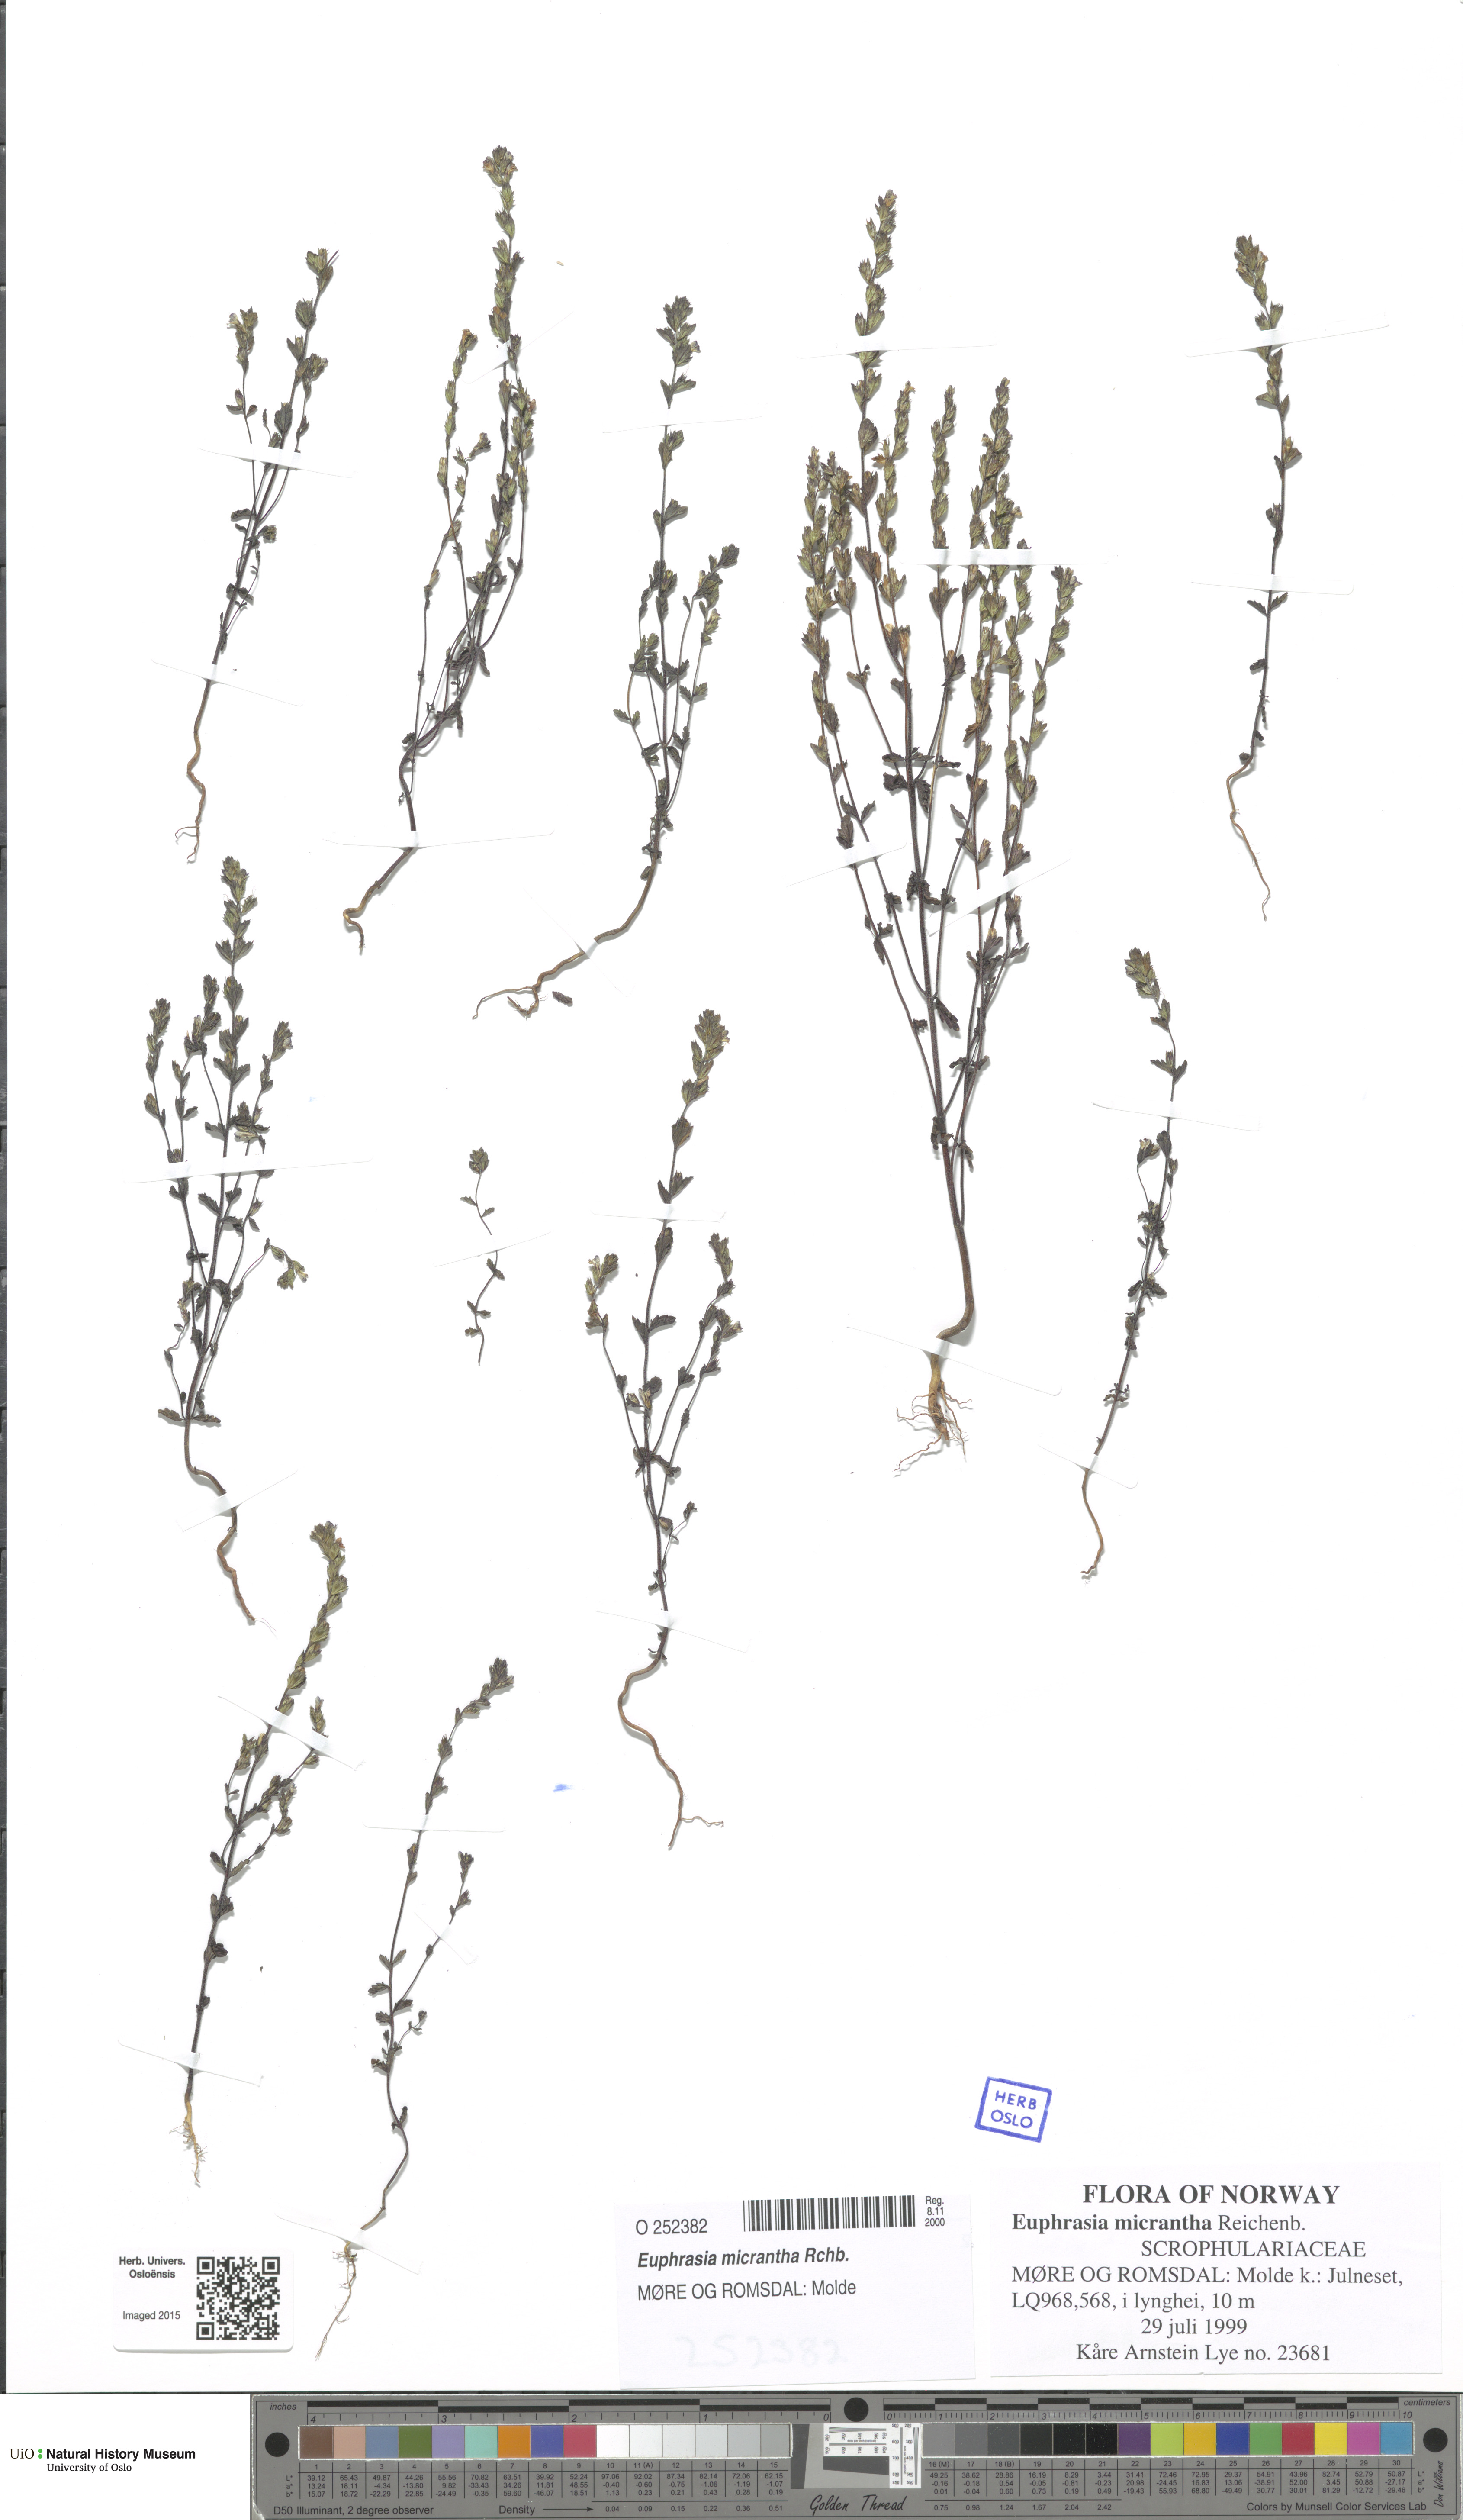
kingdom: Plantae
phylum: Tracheophyta
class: Magnoliopsida
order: Lamiales
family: Orobanchaceae
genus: Euphrasia
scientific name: Euphrasia micrantha
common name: Northern eyebright
